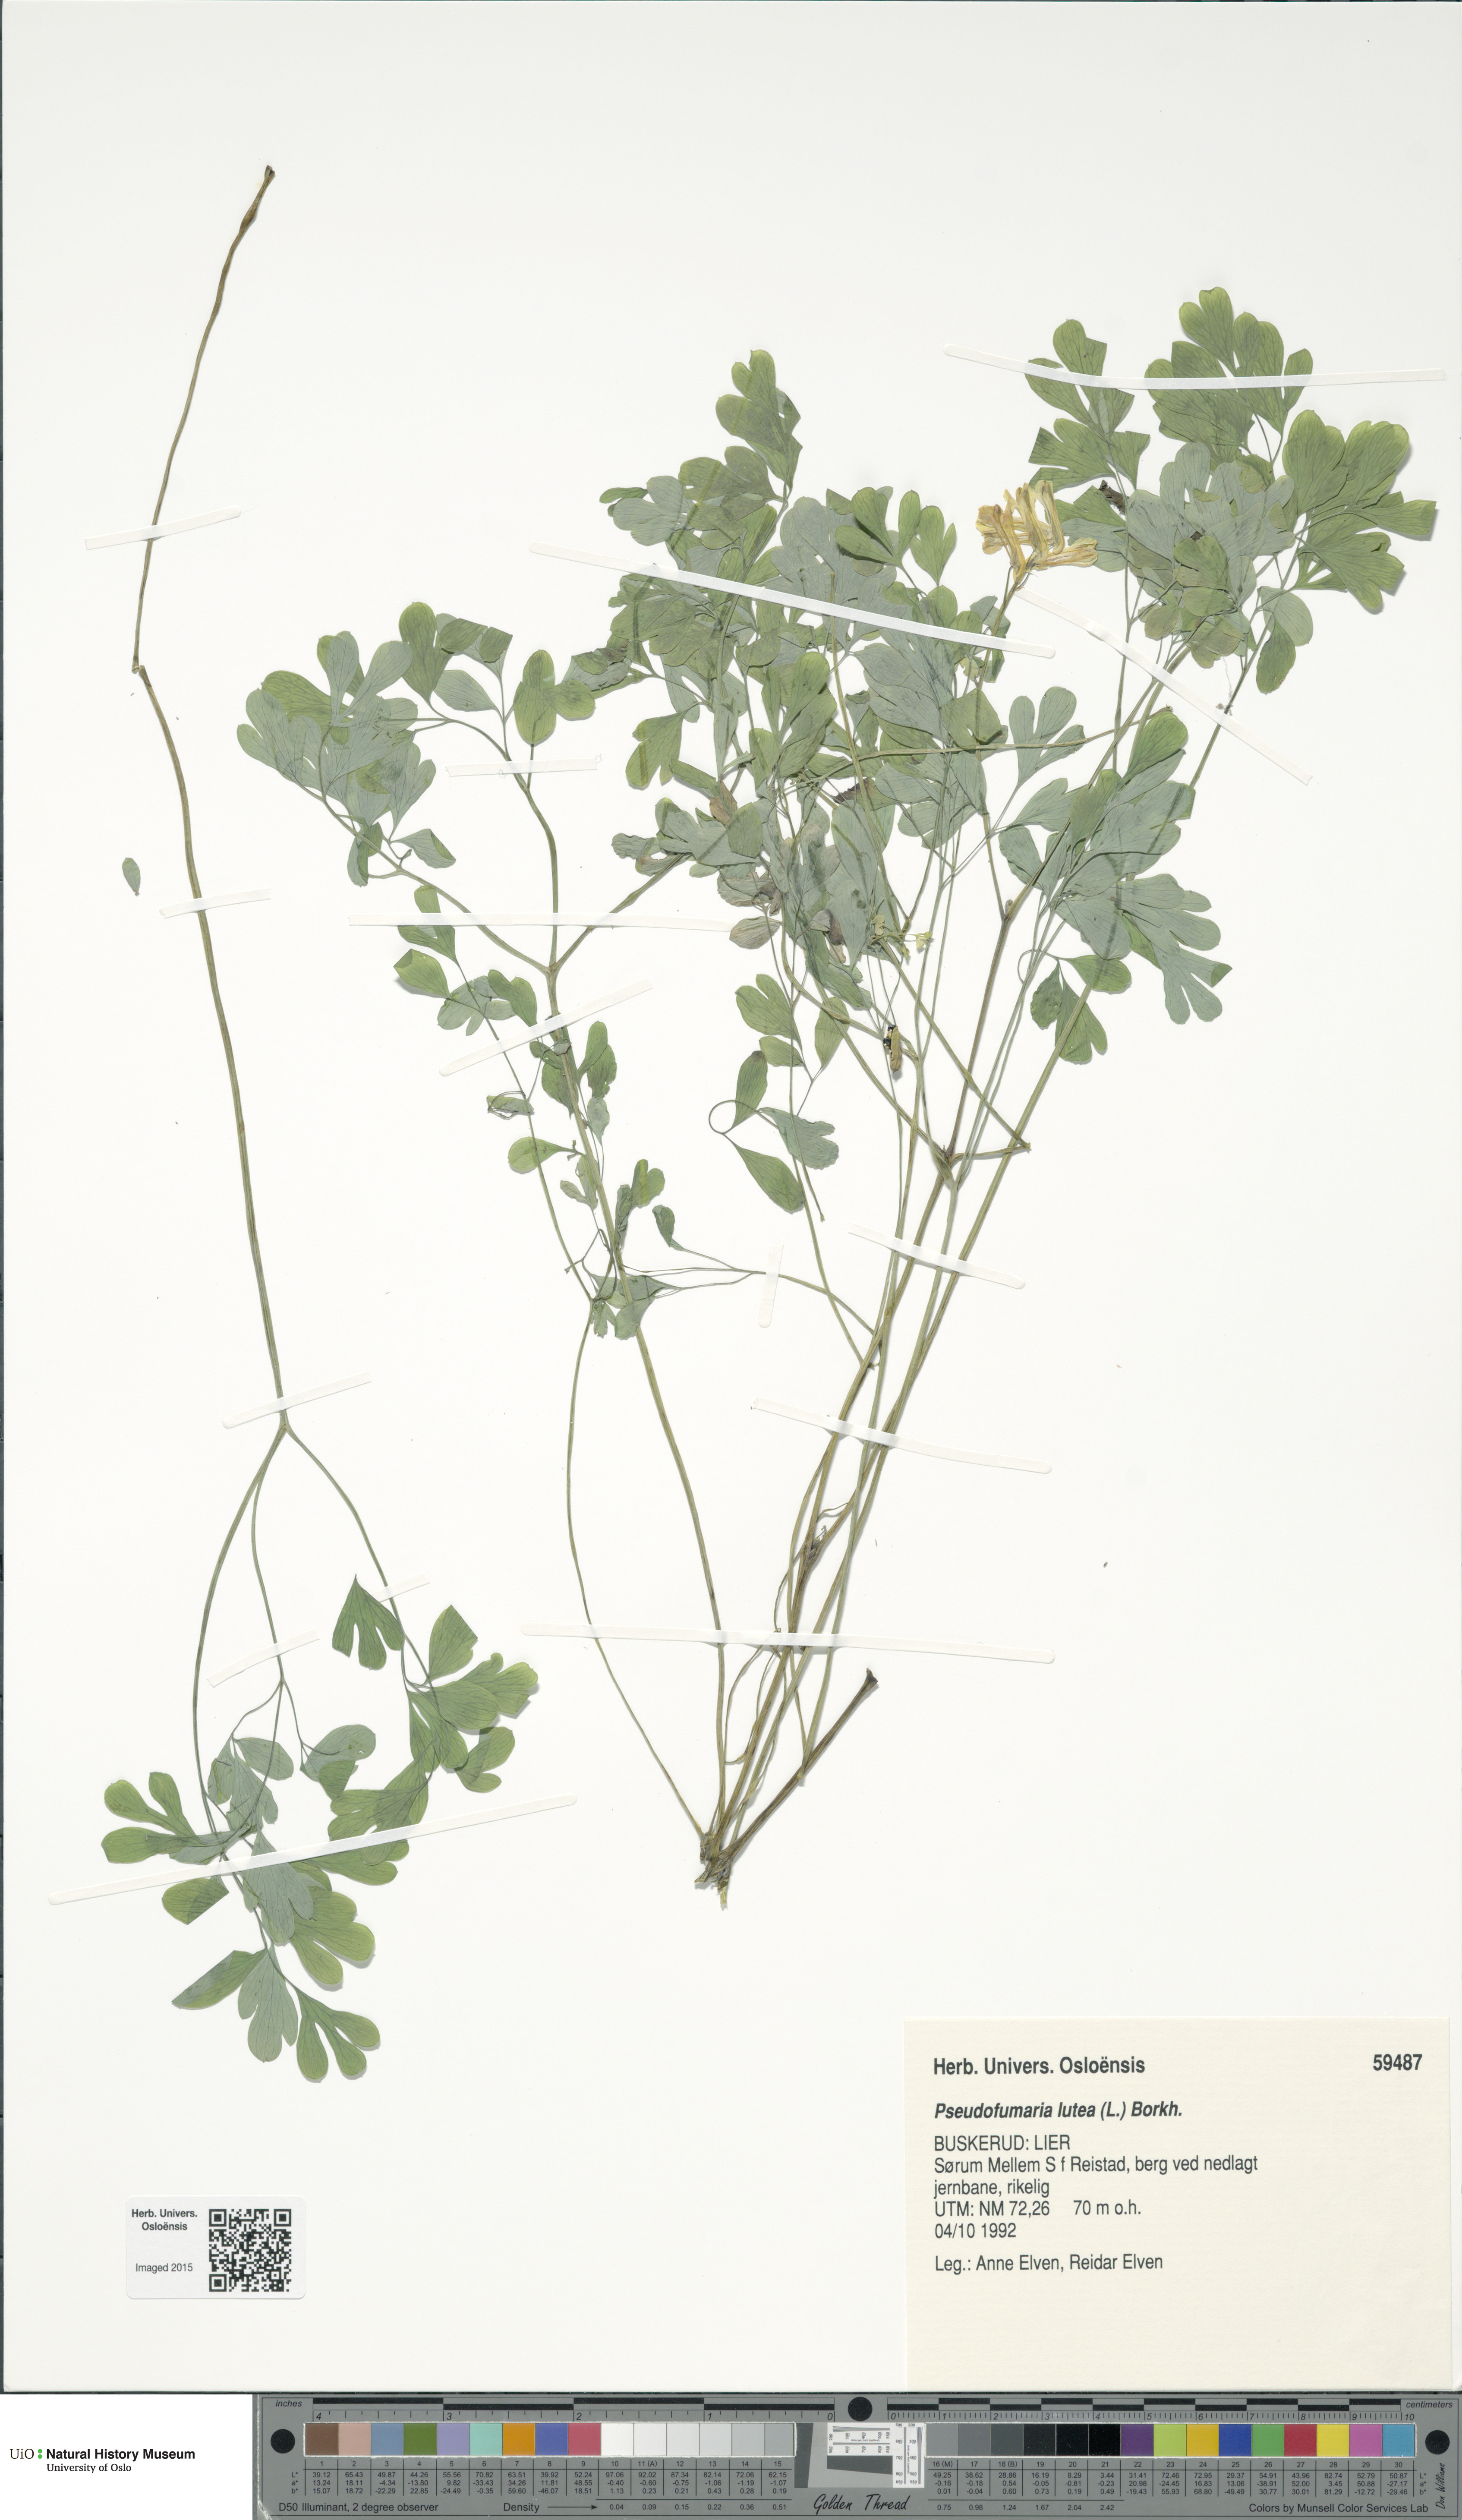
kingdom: Plantae
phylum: Tracheophyta
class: Magnoliopsida
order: Ranunculales
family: Papaveraceae
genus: Pseudofumaria
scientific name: Pseudofumaria lutea
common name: Yellow corydalis
